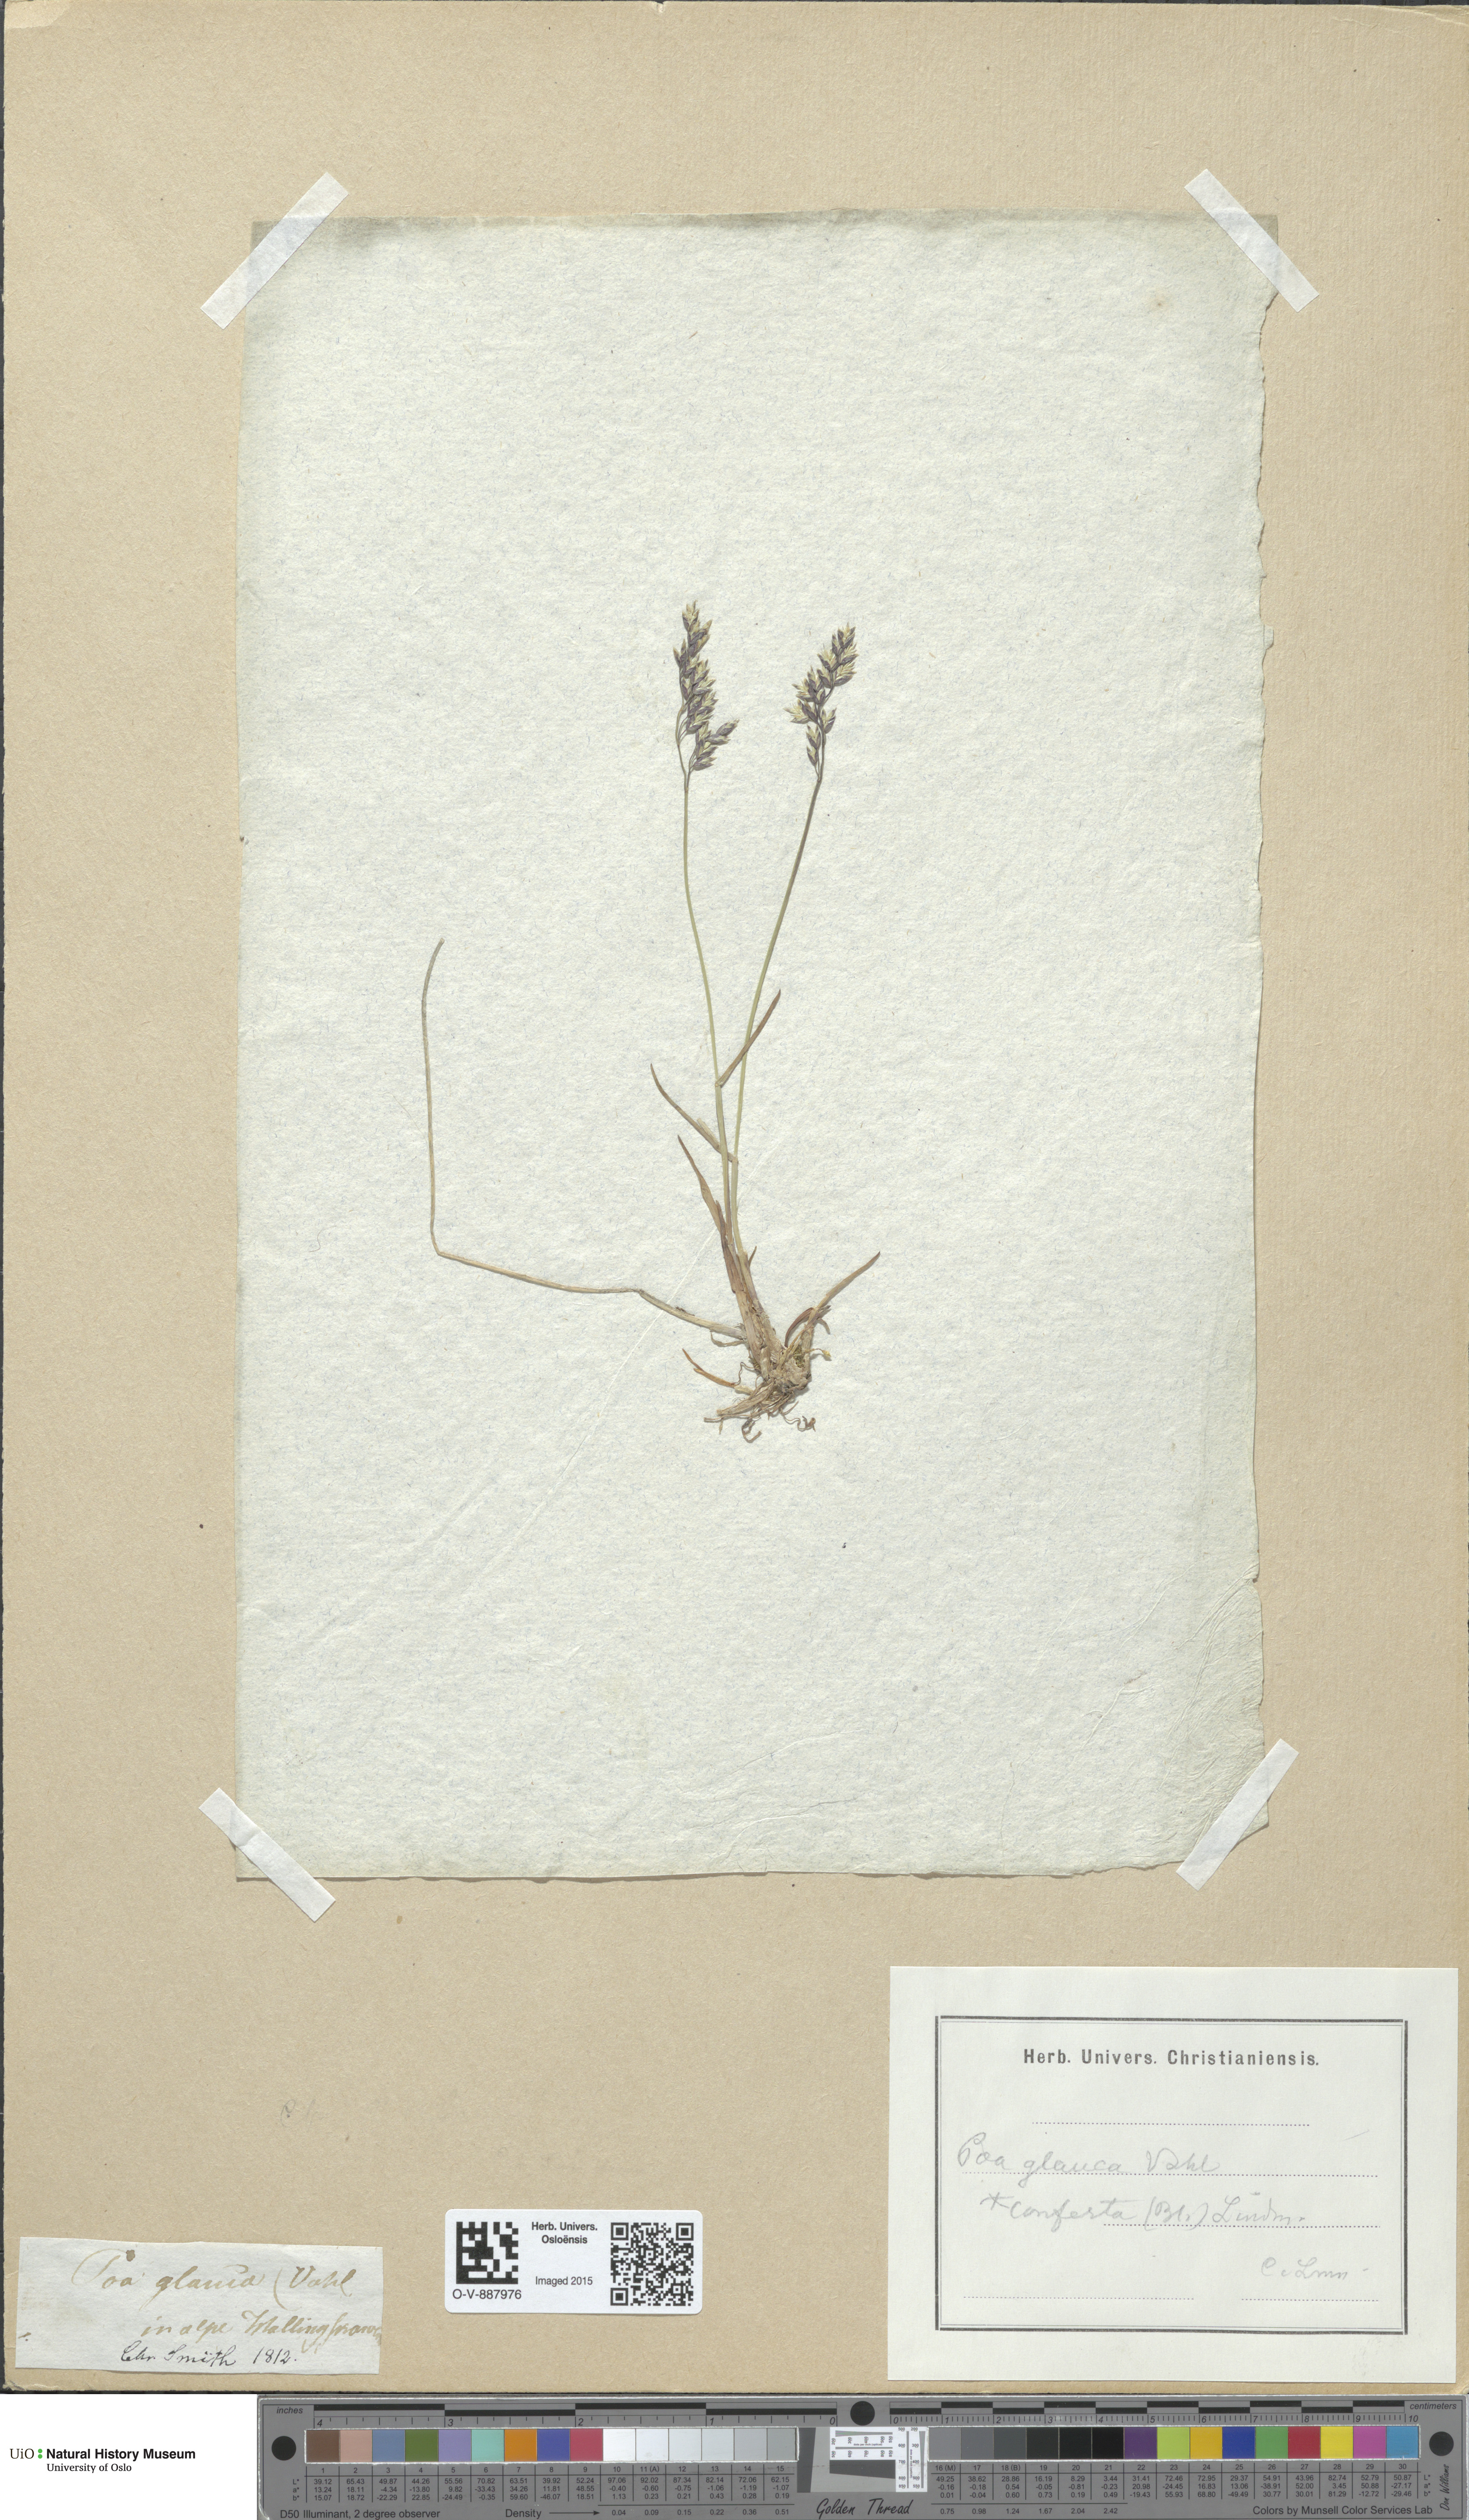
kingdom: Plantae
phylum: Tracheophyta
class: Liliopsida
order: Poales
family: Poaceae
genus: Poa
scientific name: Poa glauca
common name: Glaucous bluegrass
